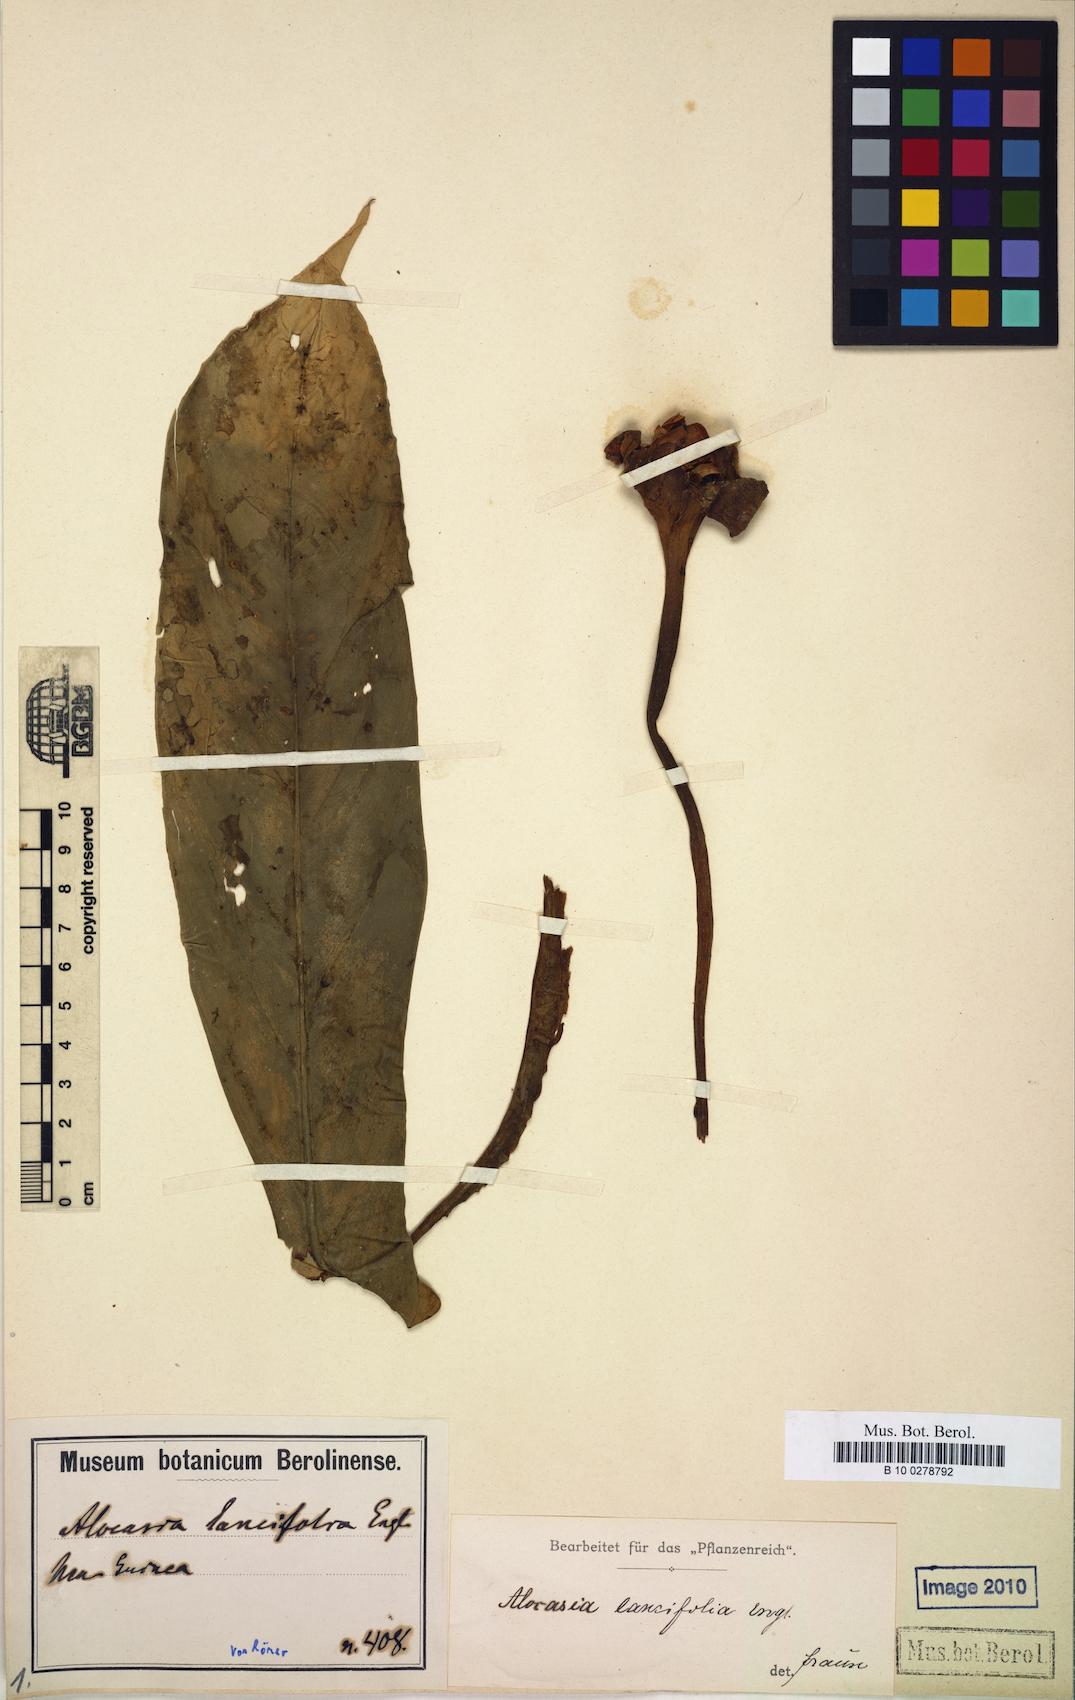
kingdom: Plantae
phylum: Tracheophyta
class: Liliopsida
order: Alismatales
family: Araceae
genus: Alocasia
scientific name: Alocasia lancifolia
